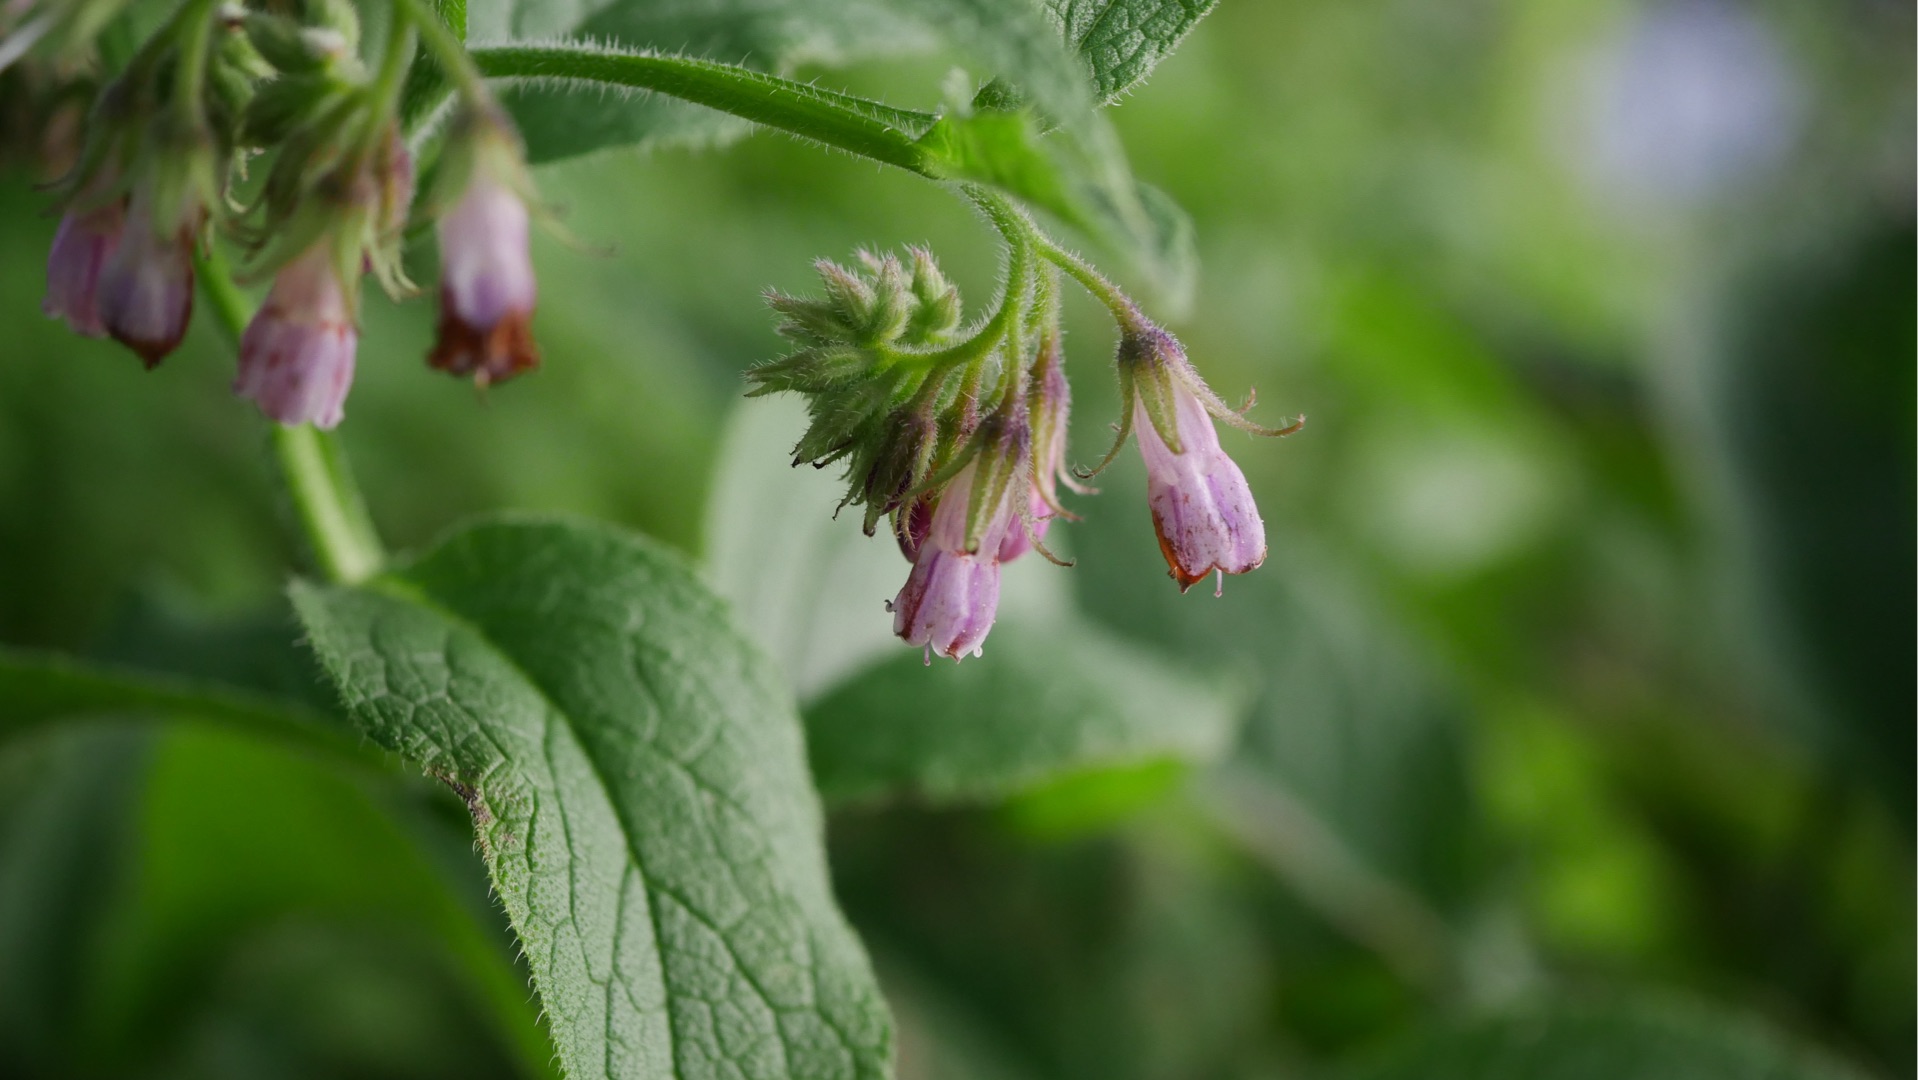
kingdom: Plantae
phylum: Tracheophyta
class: Magnoliopsida
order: Boraginales
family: Boraginaceae
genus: Symphytum
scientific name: Symphytum uplandicum
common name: Foder-kulsukker
